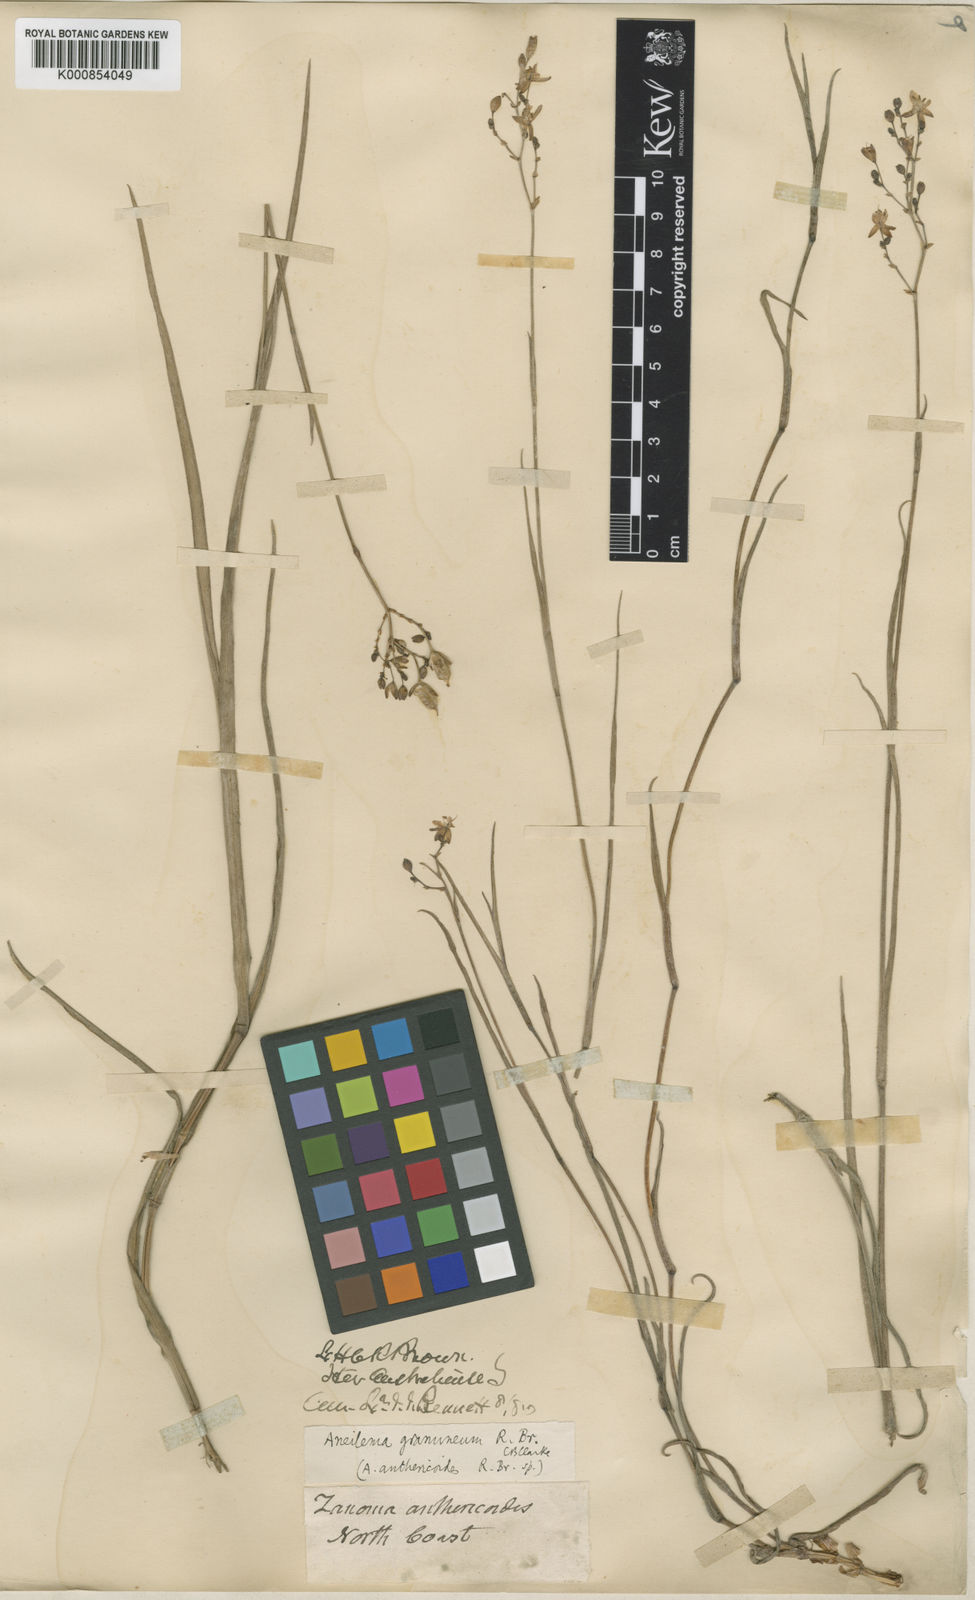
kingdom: Plantae
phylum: Tracheophyta
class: Liliopsida
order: Commelinales
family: Commelinaceae
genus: Murdannia
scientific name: Murdannia
